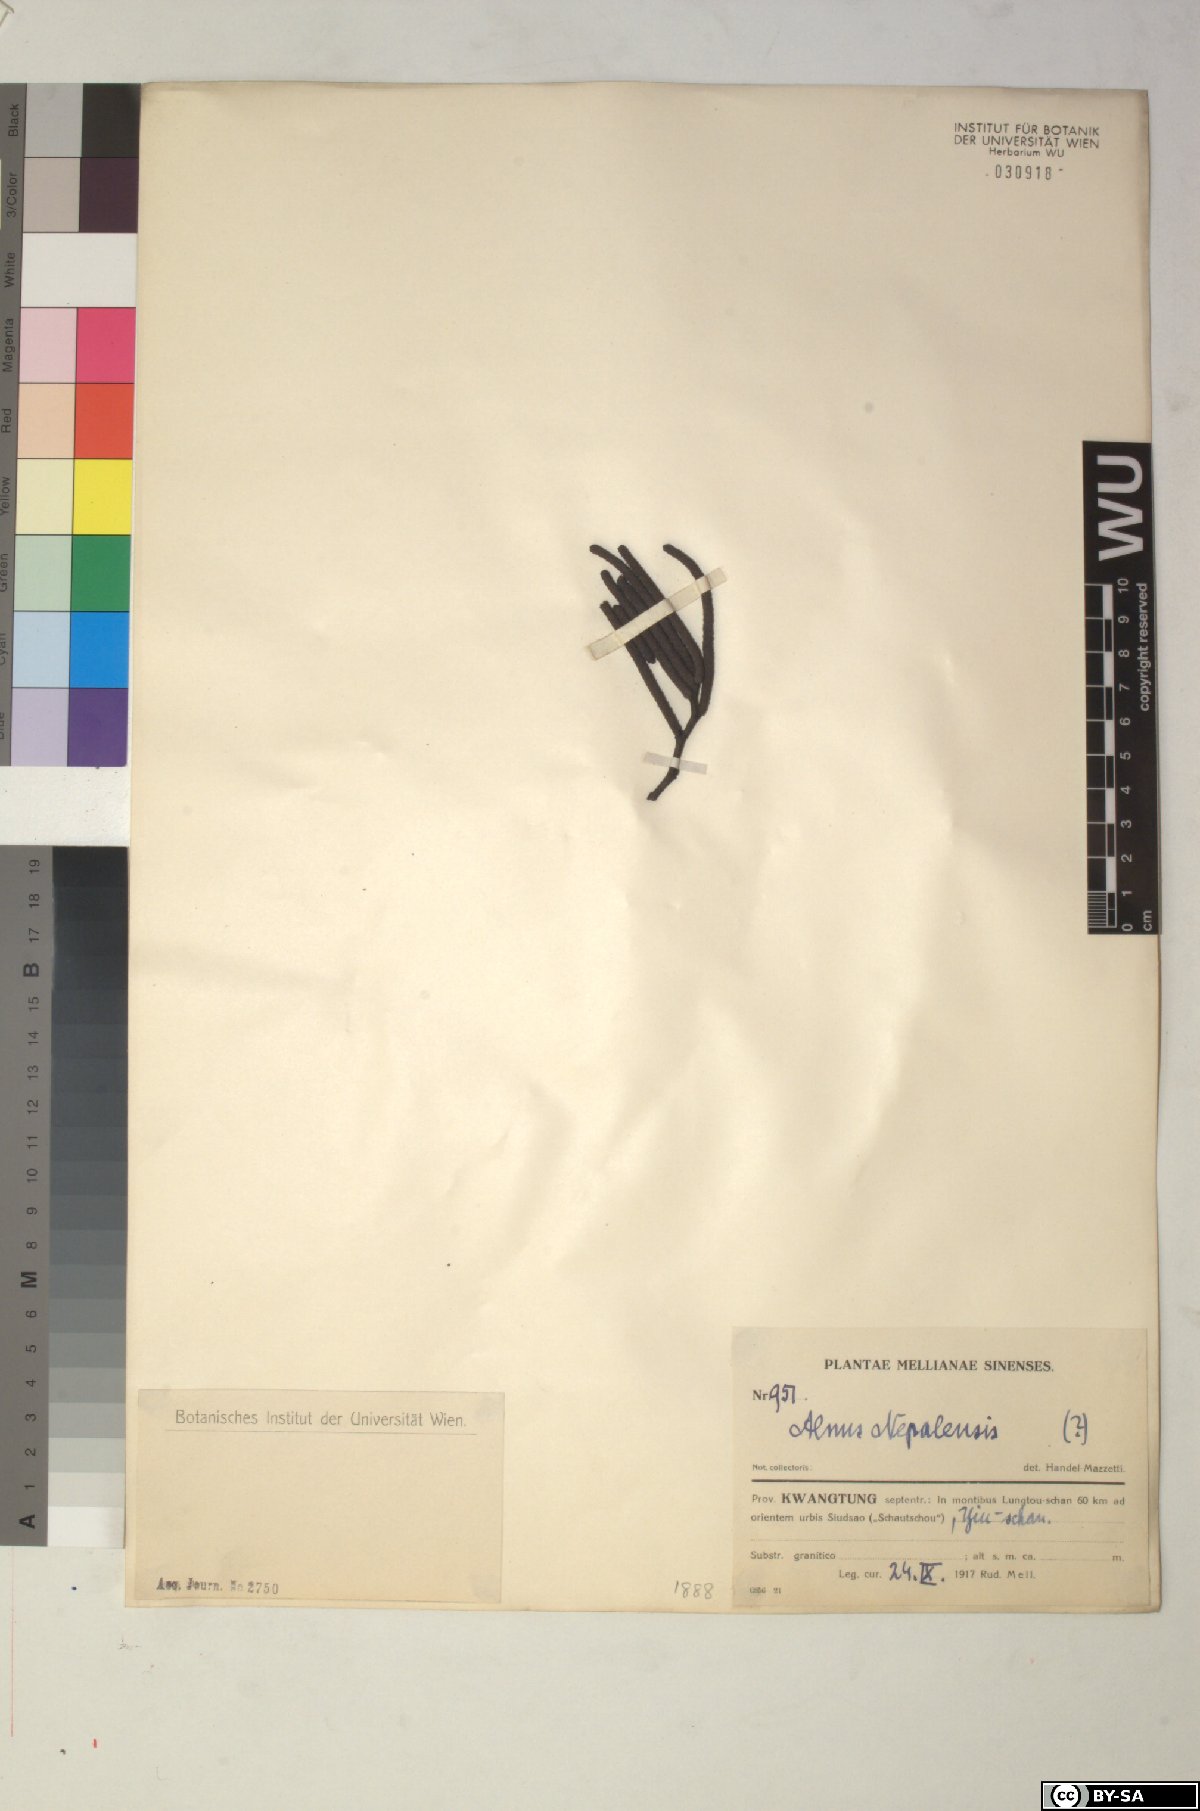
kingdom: Plantae
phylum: Tracheophyta
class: Magnoliopsida
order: Fagales
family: Betulaceae
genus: Alnus
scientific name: Alnus nepalensis
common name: Nepal alder
